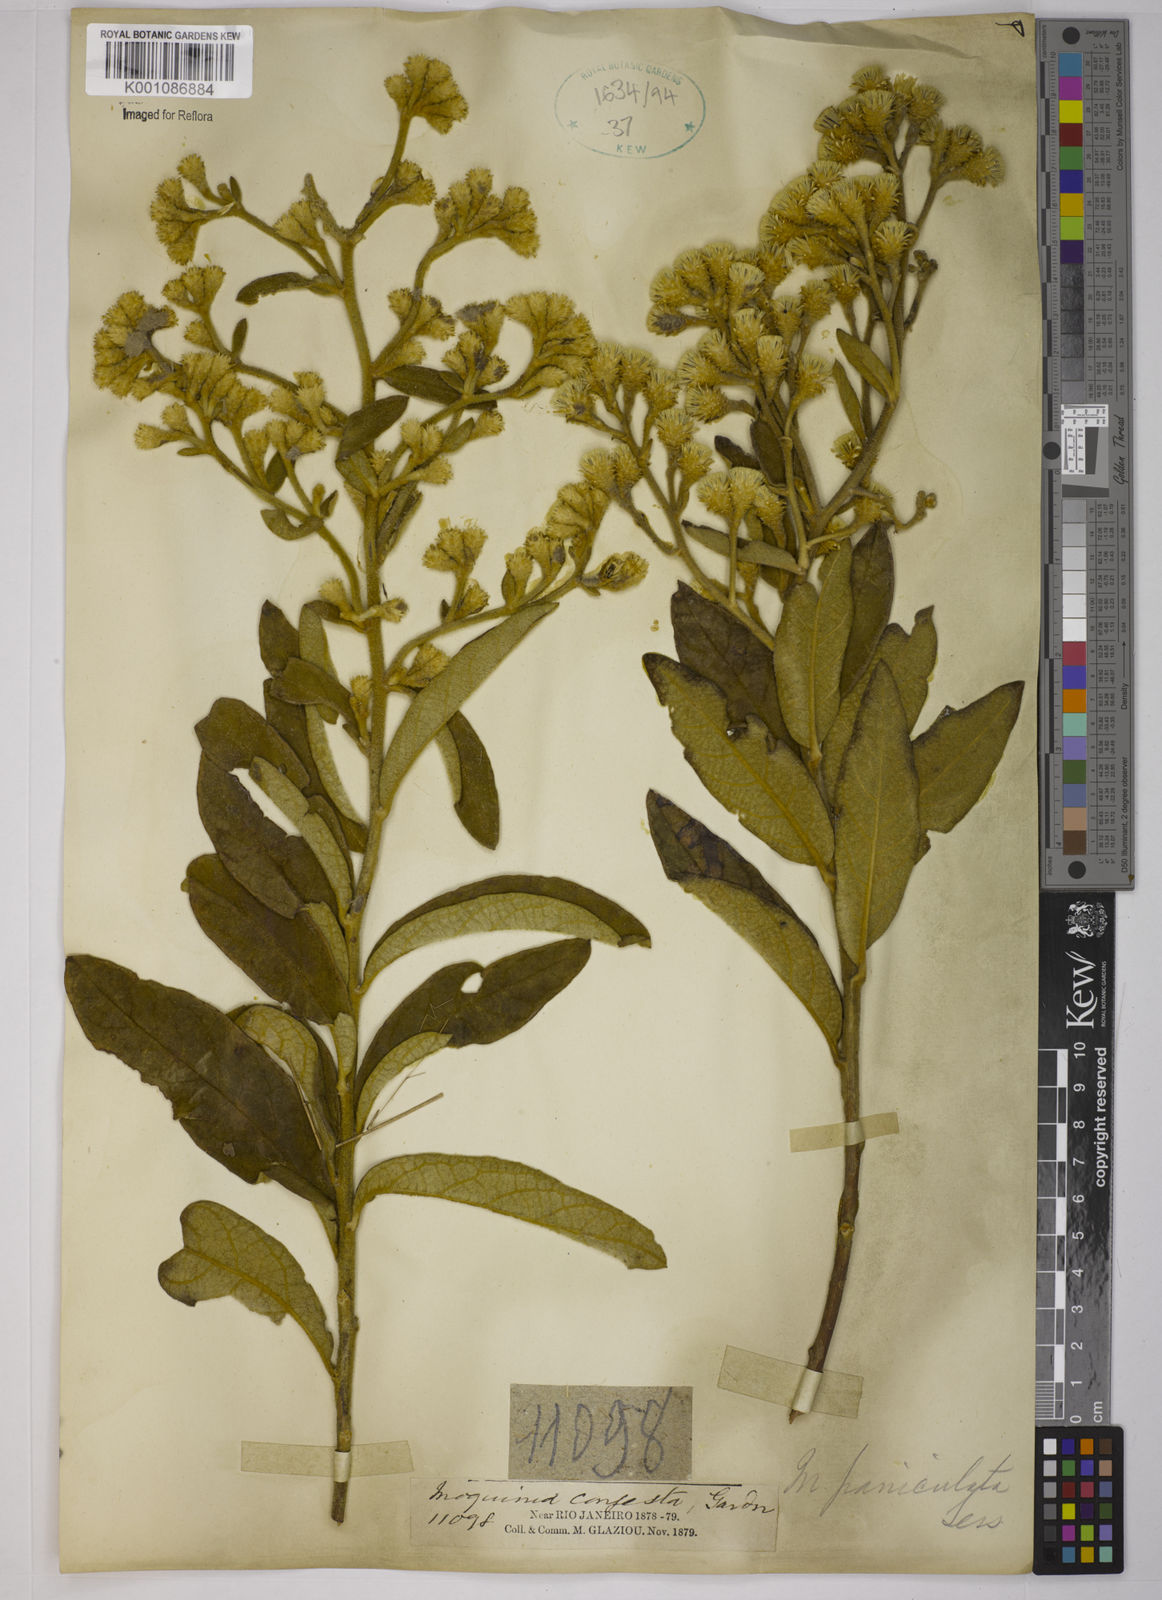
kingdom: Plantae
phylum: Tracheophyta
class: Magnoliopsida
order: Asterales
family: Asteraceae
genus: Moquiniastrum
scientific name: Moquiniastrum paniculatum
